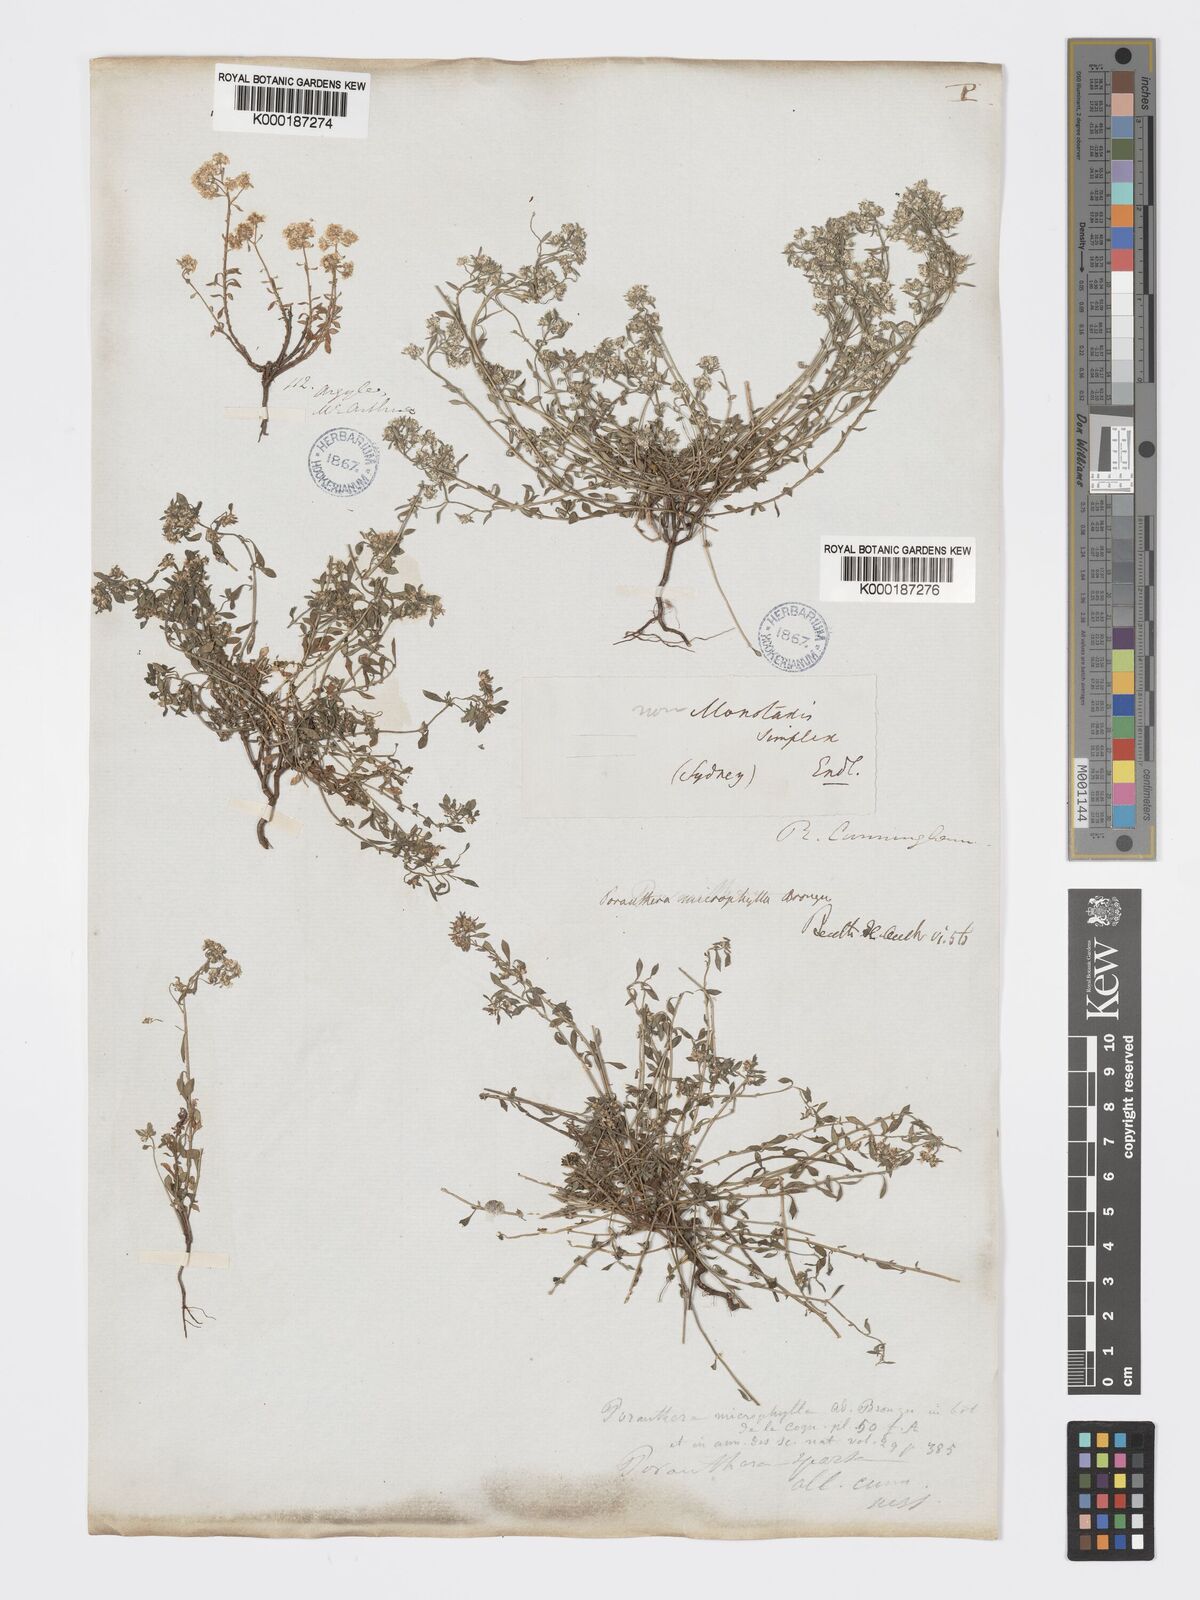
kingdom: Plantae
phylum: Tracheophyta
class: Magnoliopsida
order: Malpighiales
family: Phyllanthaceae
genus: Poranthera
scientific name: Poranthera microphylla
